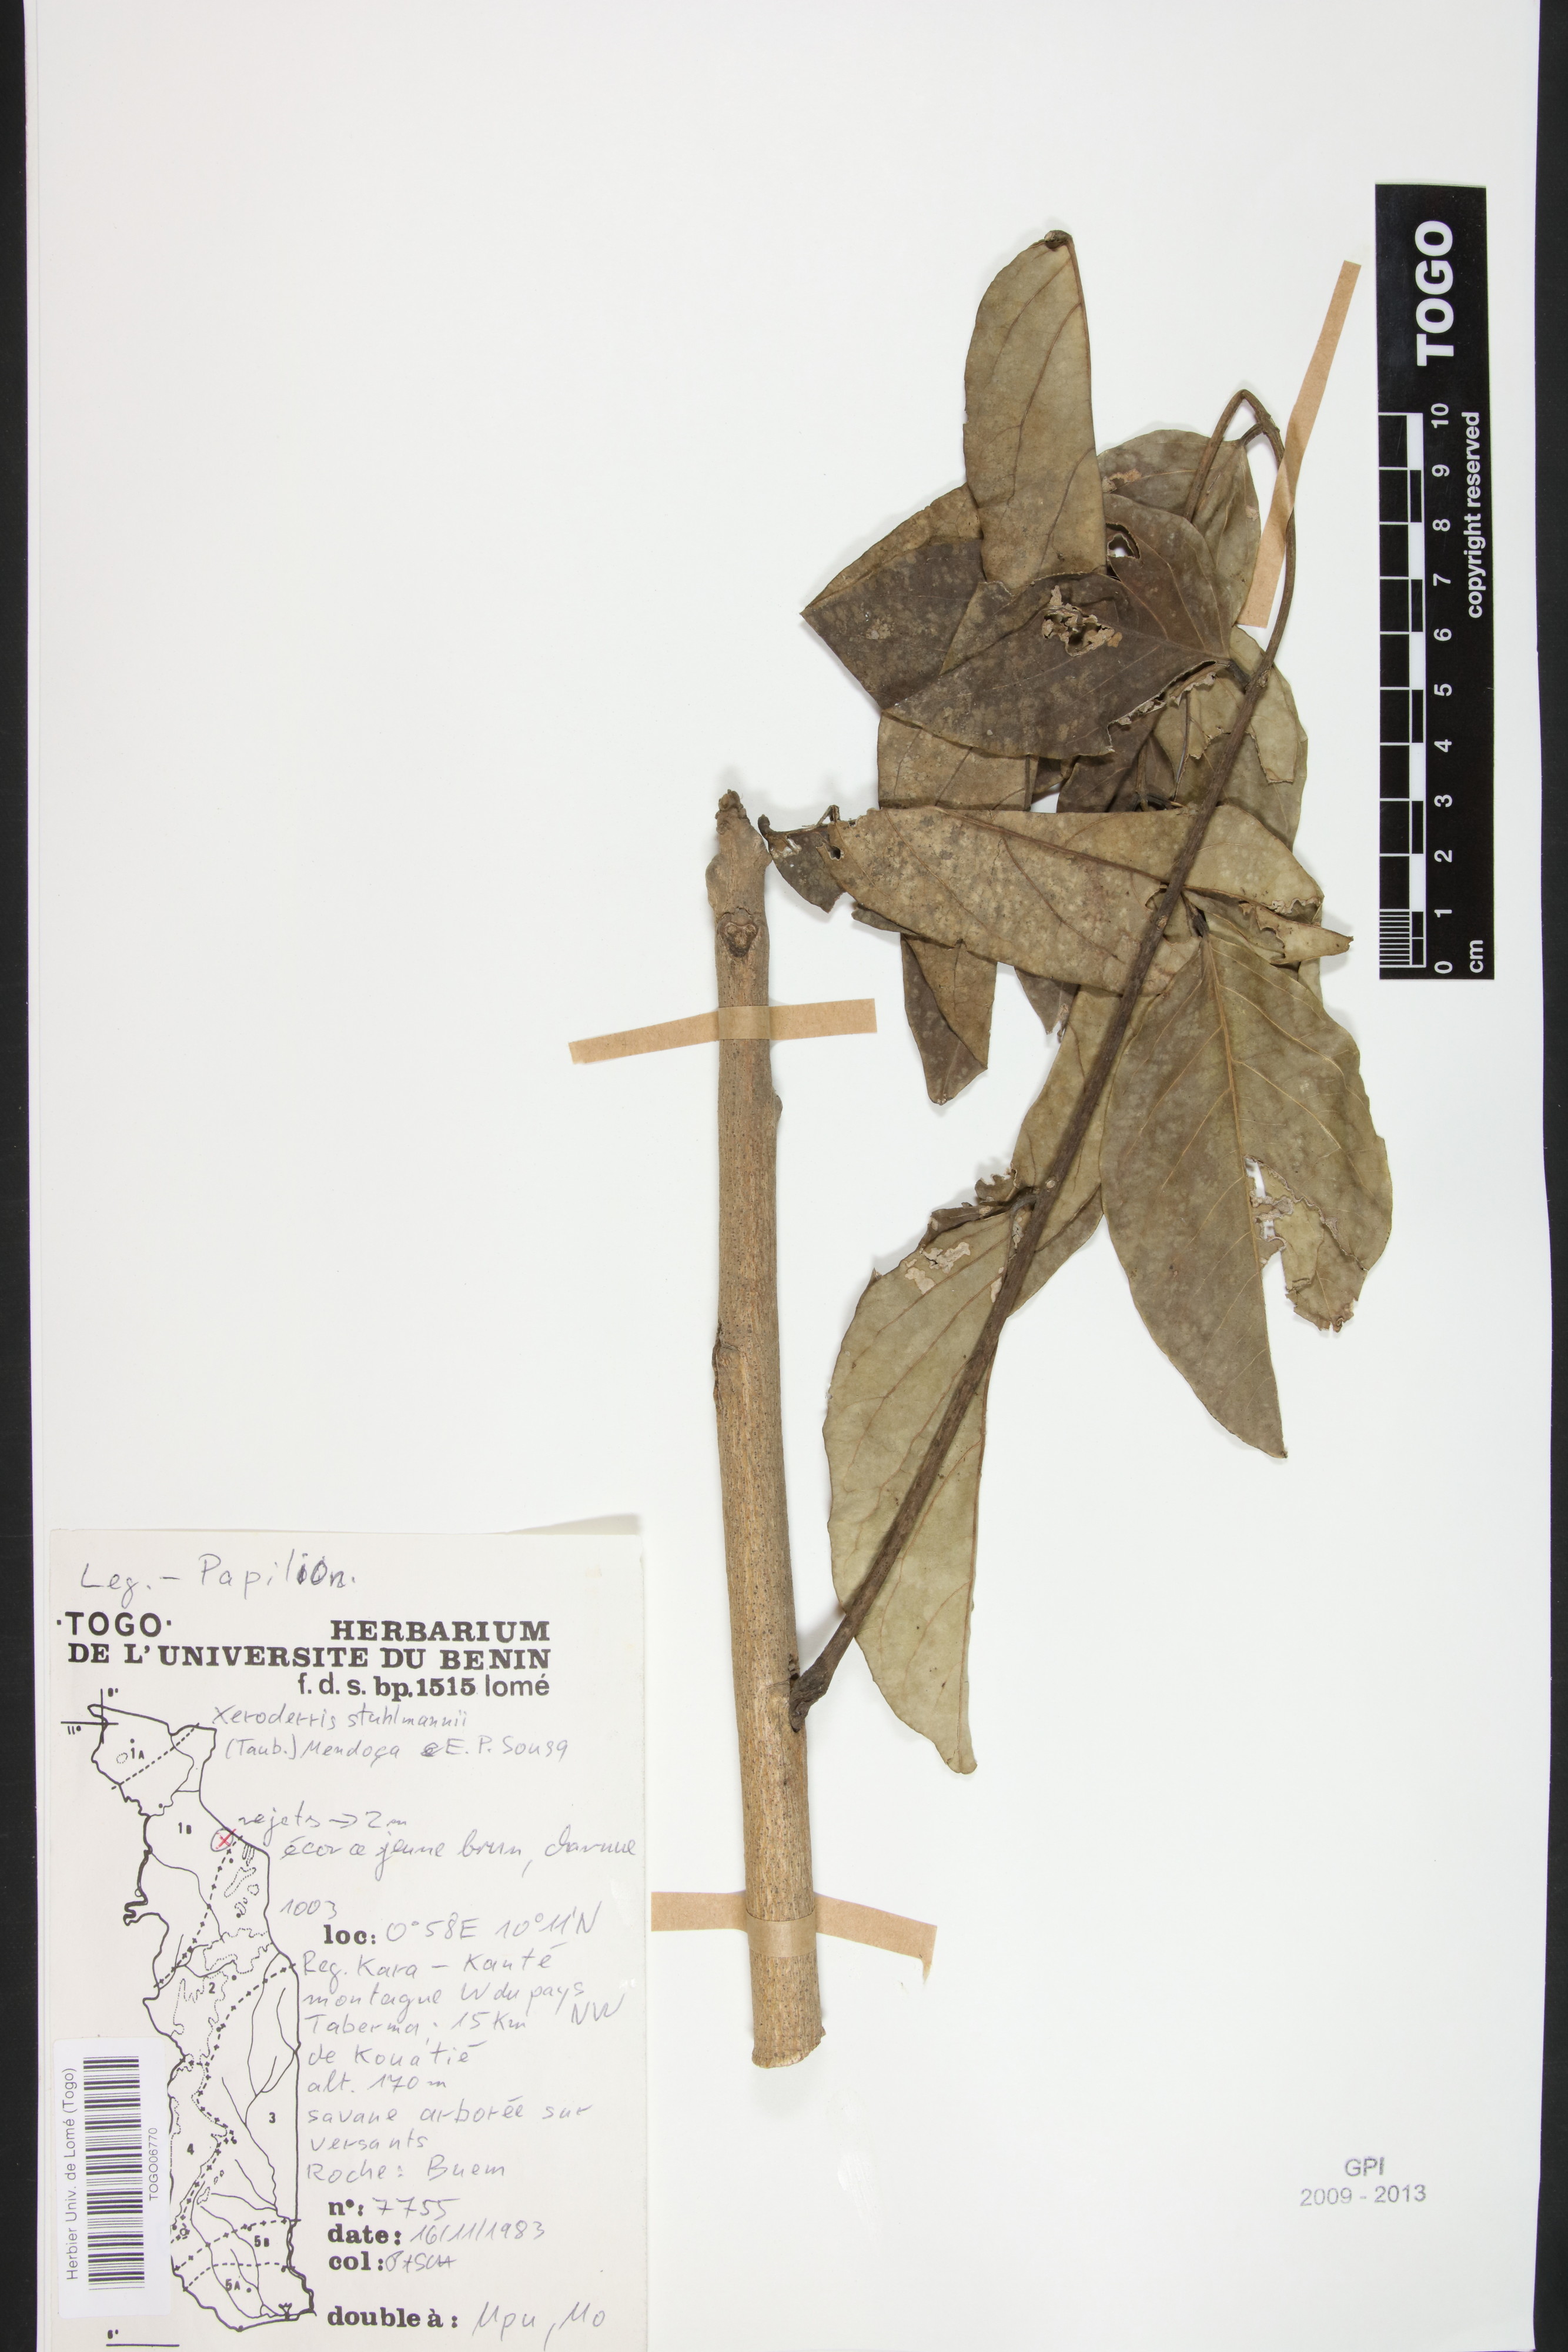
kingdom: Plantae
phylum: Tracheophyta
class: Magnoliopsida
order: Fabales
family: Fabaceae
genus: Aganope
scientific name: Aganope stuhlmannii
